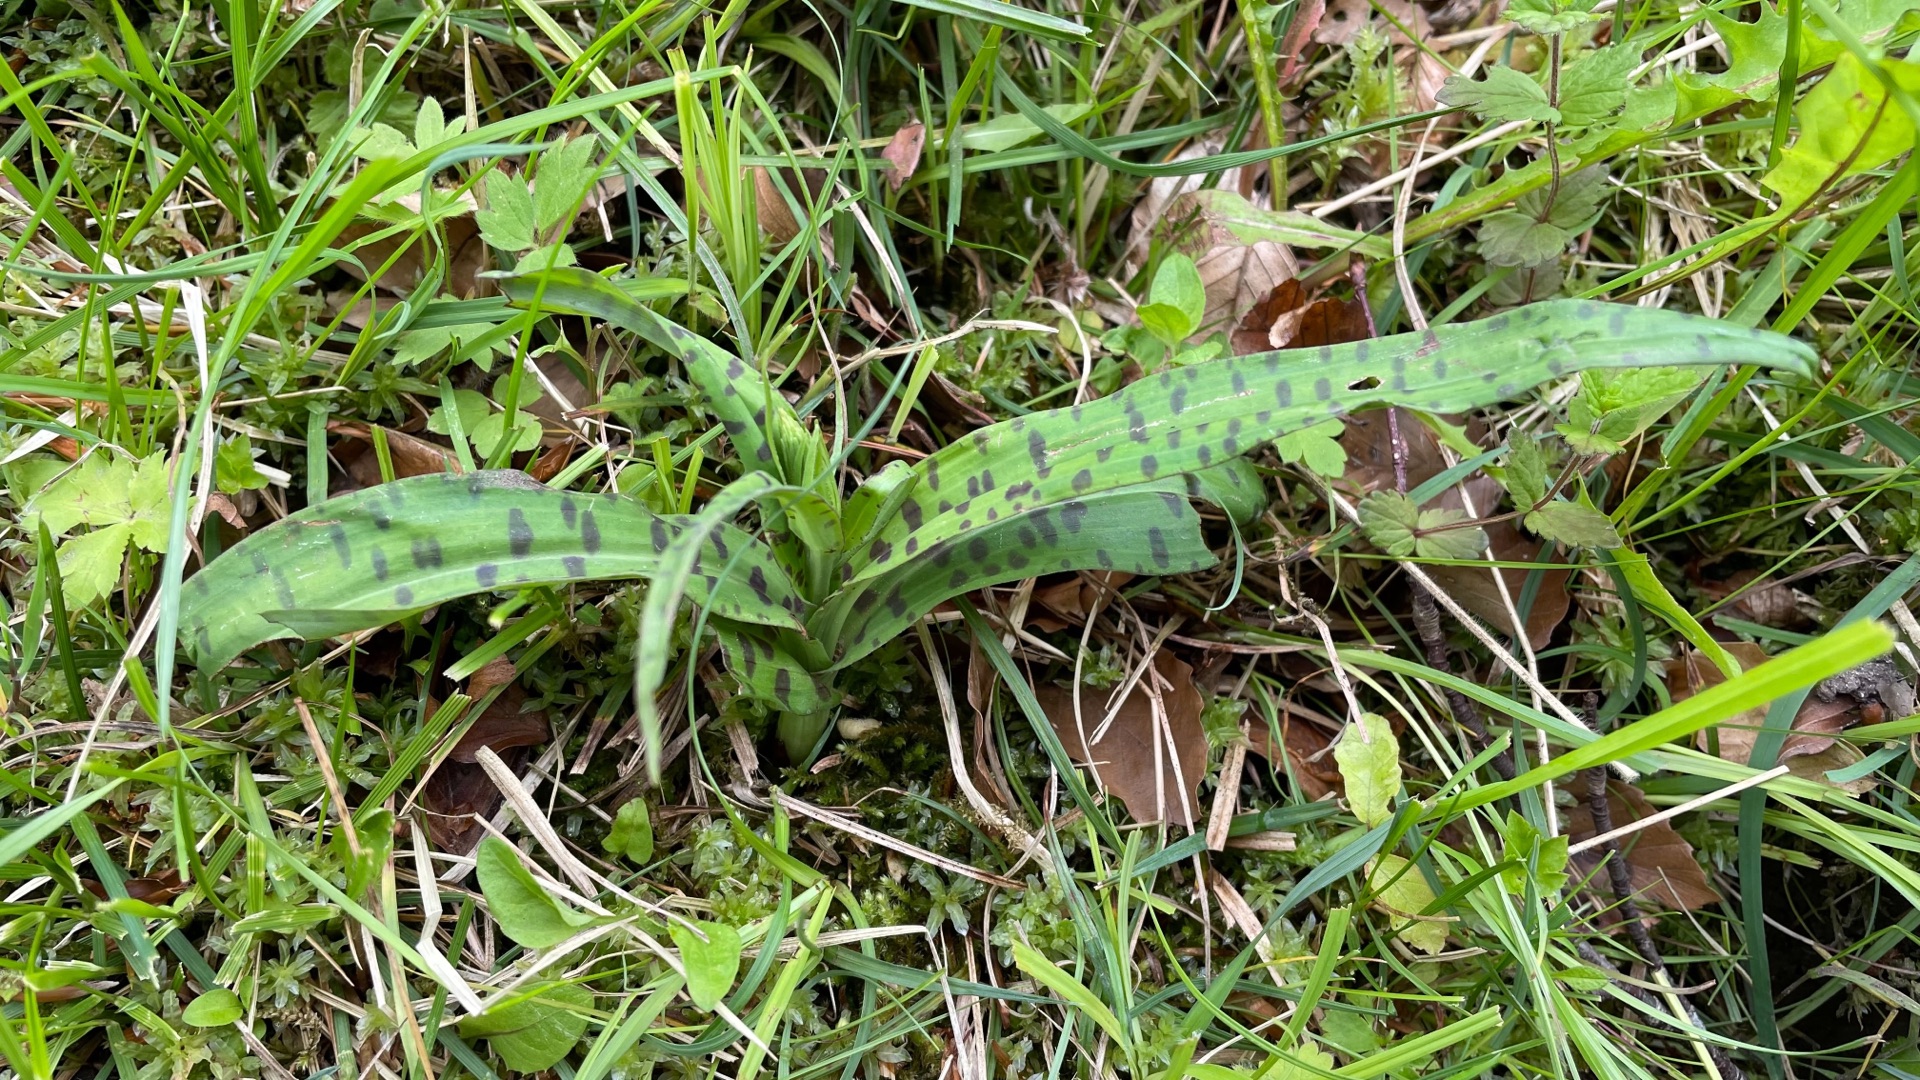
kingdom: Plantae
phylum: Tracheophyta
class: Liliopsida
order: Asparagales
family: Orchidaceae
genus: Dactylorhiza
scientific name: Dactylorhiza maculata
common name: Skov-gøgeurt
